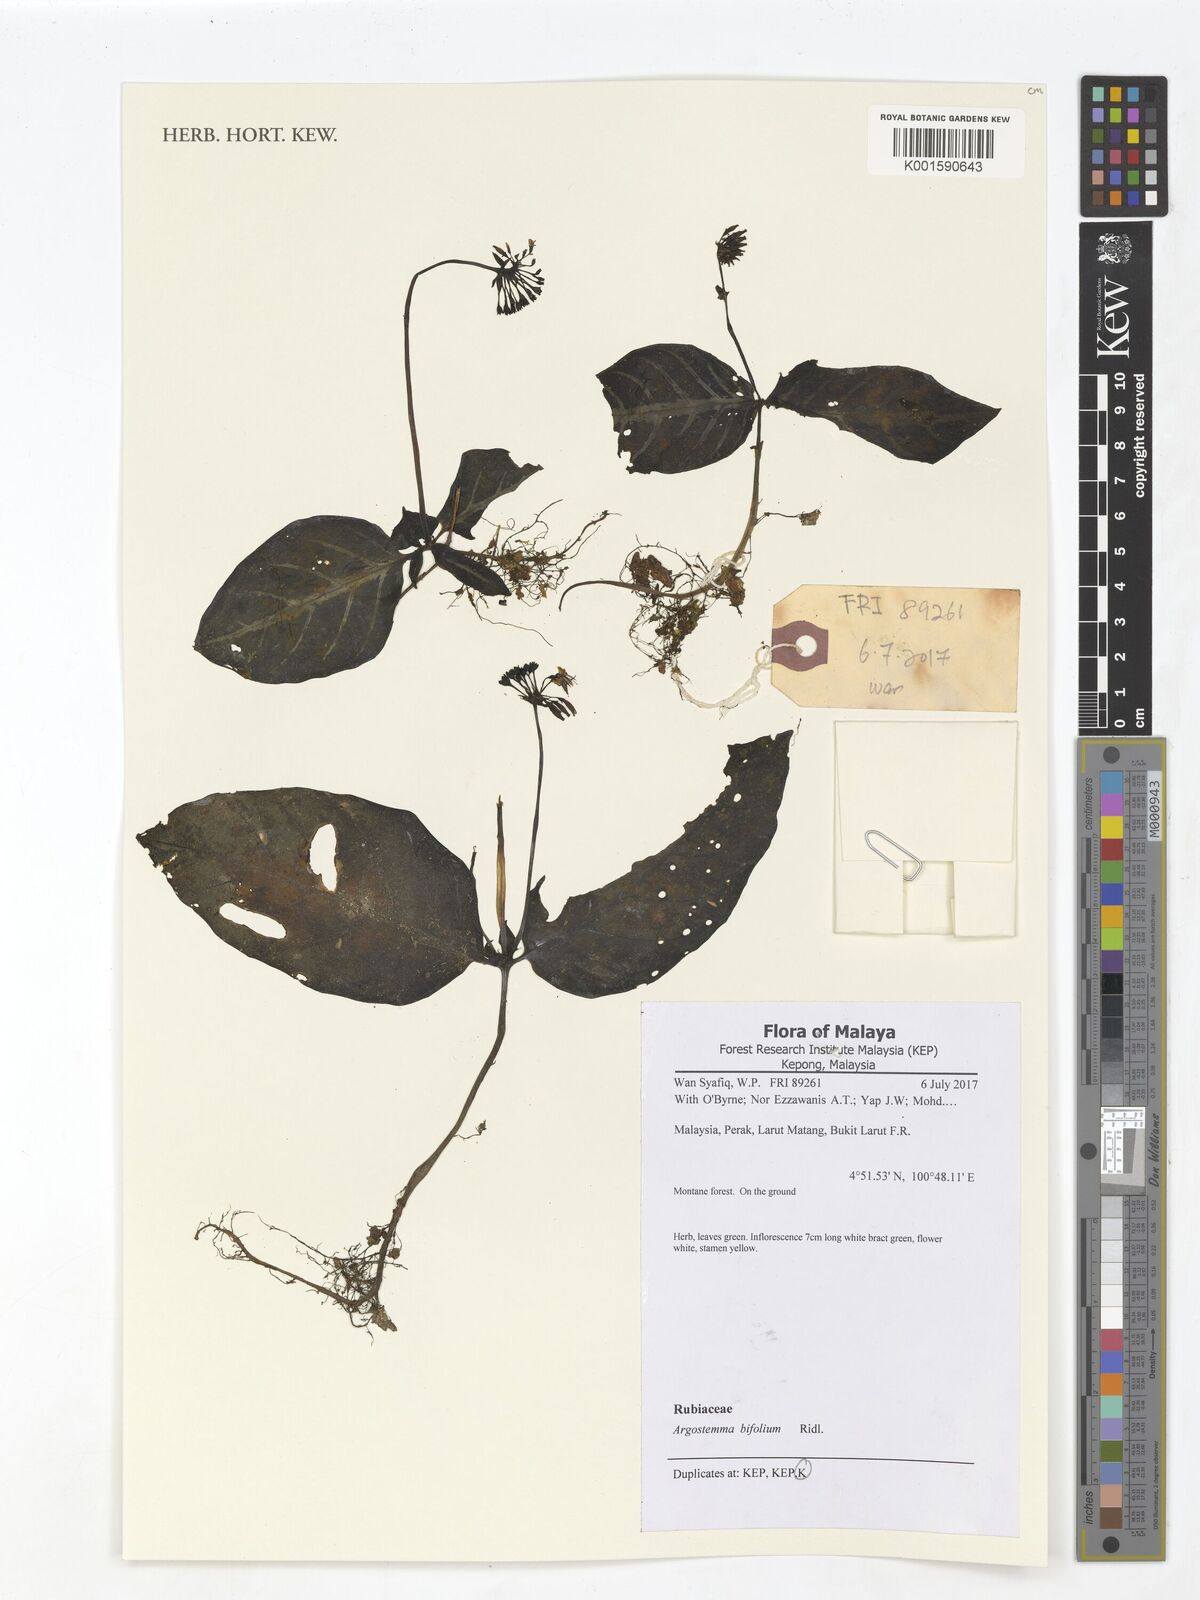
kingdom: Plantae
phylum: Tracheophyta
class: Magnoliopsida
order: Gentianales
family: Rubiaceae
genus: Argostemma
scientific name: Argostemma bifolium
